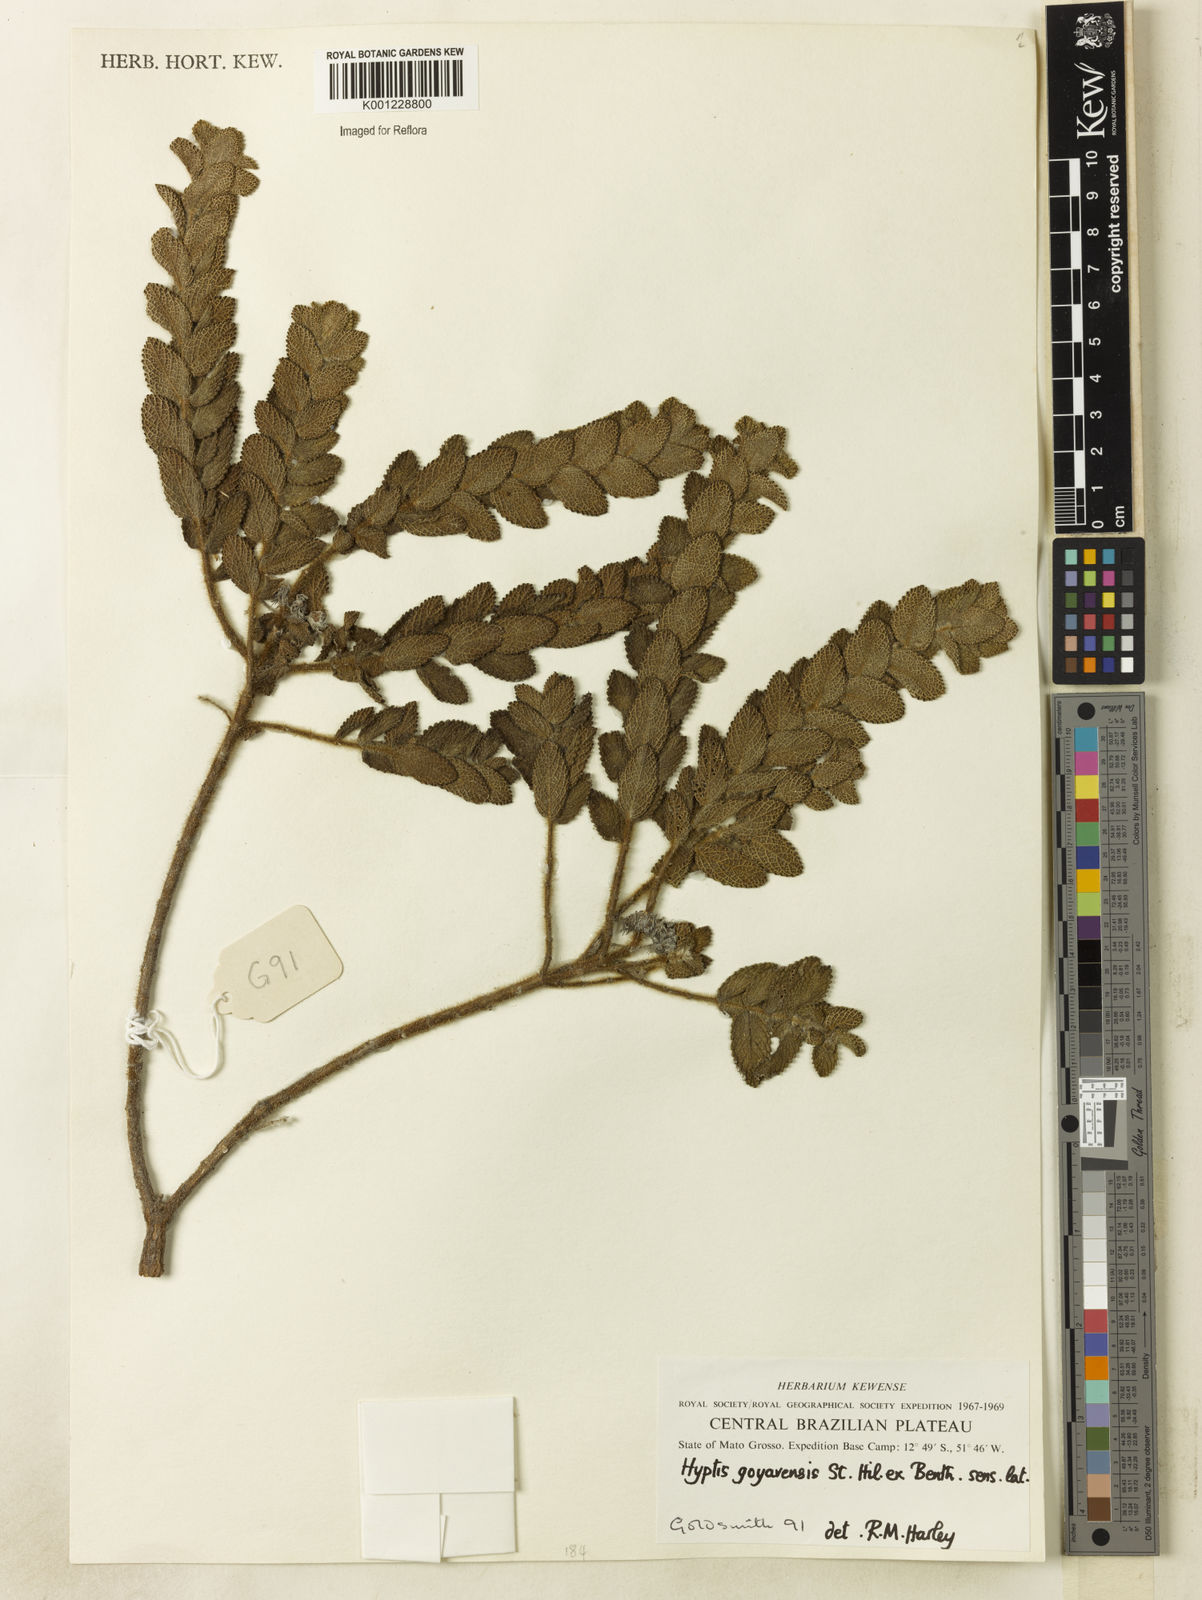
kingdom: Plantae
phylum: Tracheophyta
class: Magnoliopsida
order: Lamiales
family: Lamiaceae
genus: Hyptis
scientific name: Hyptis goyazensis
